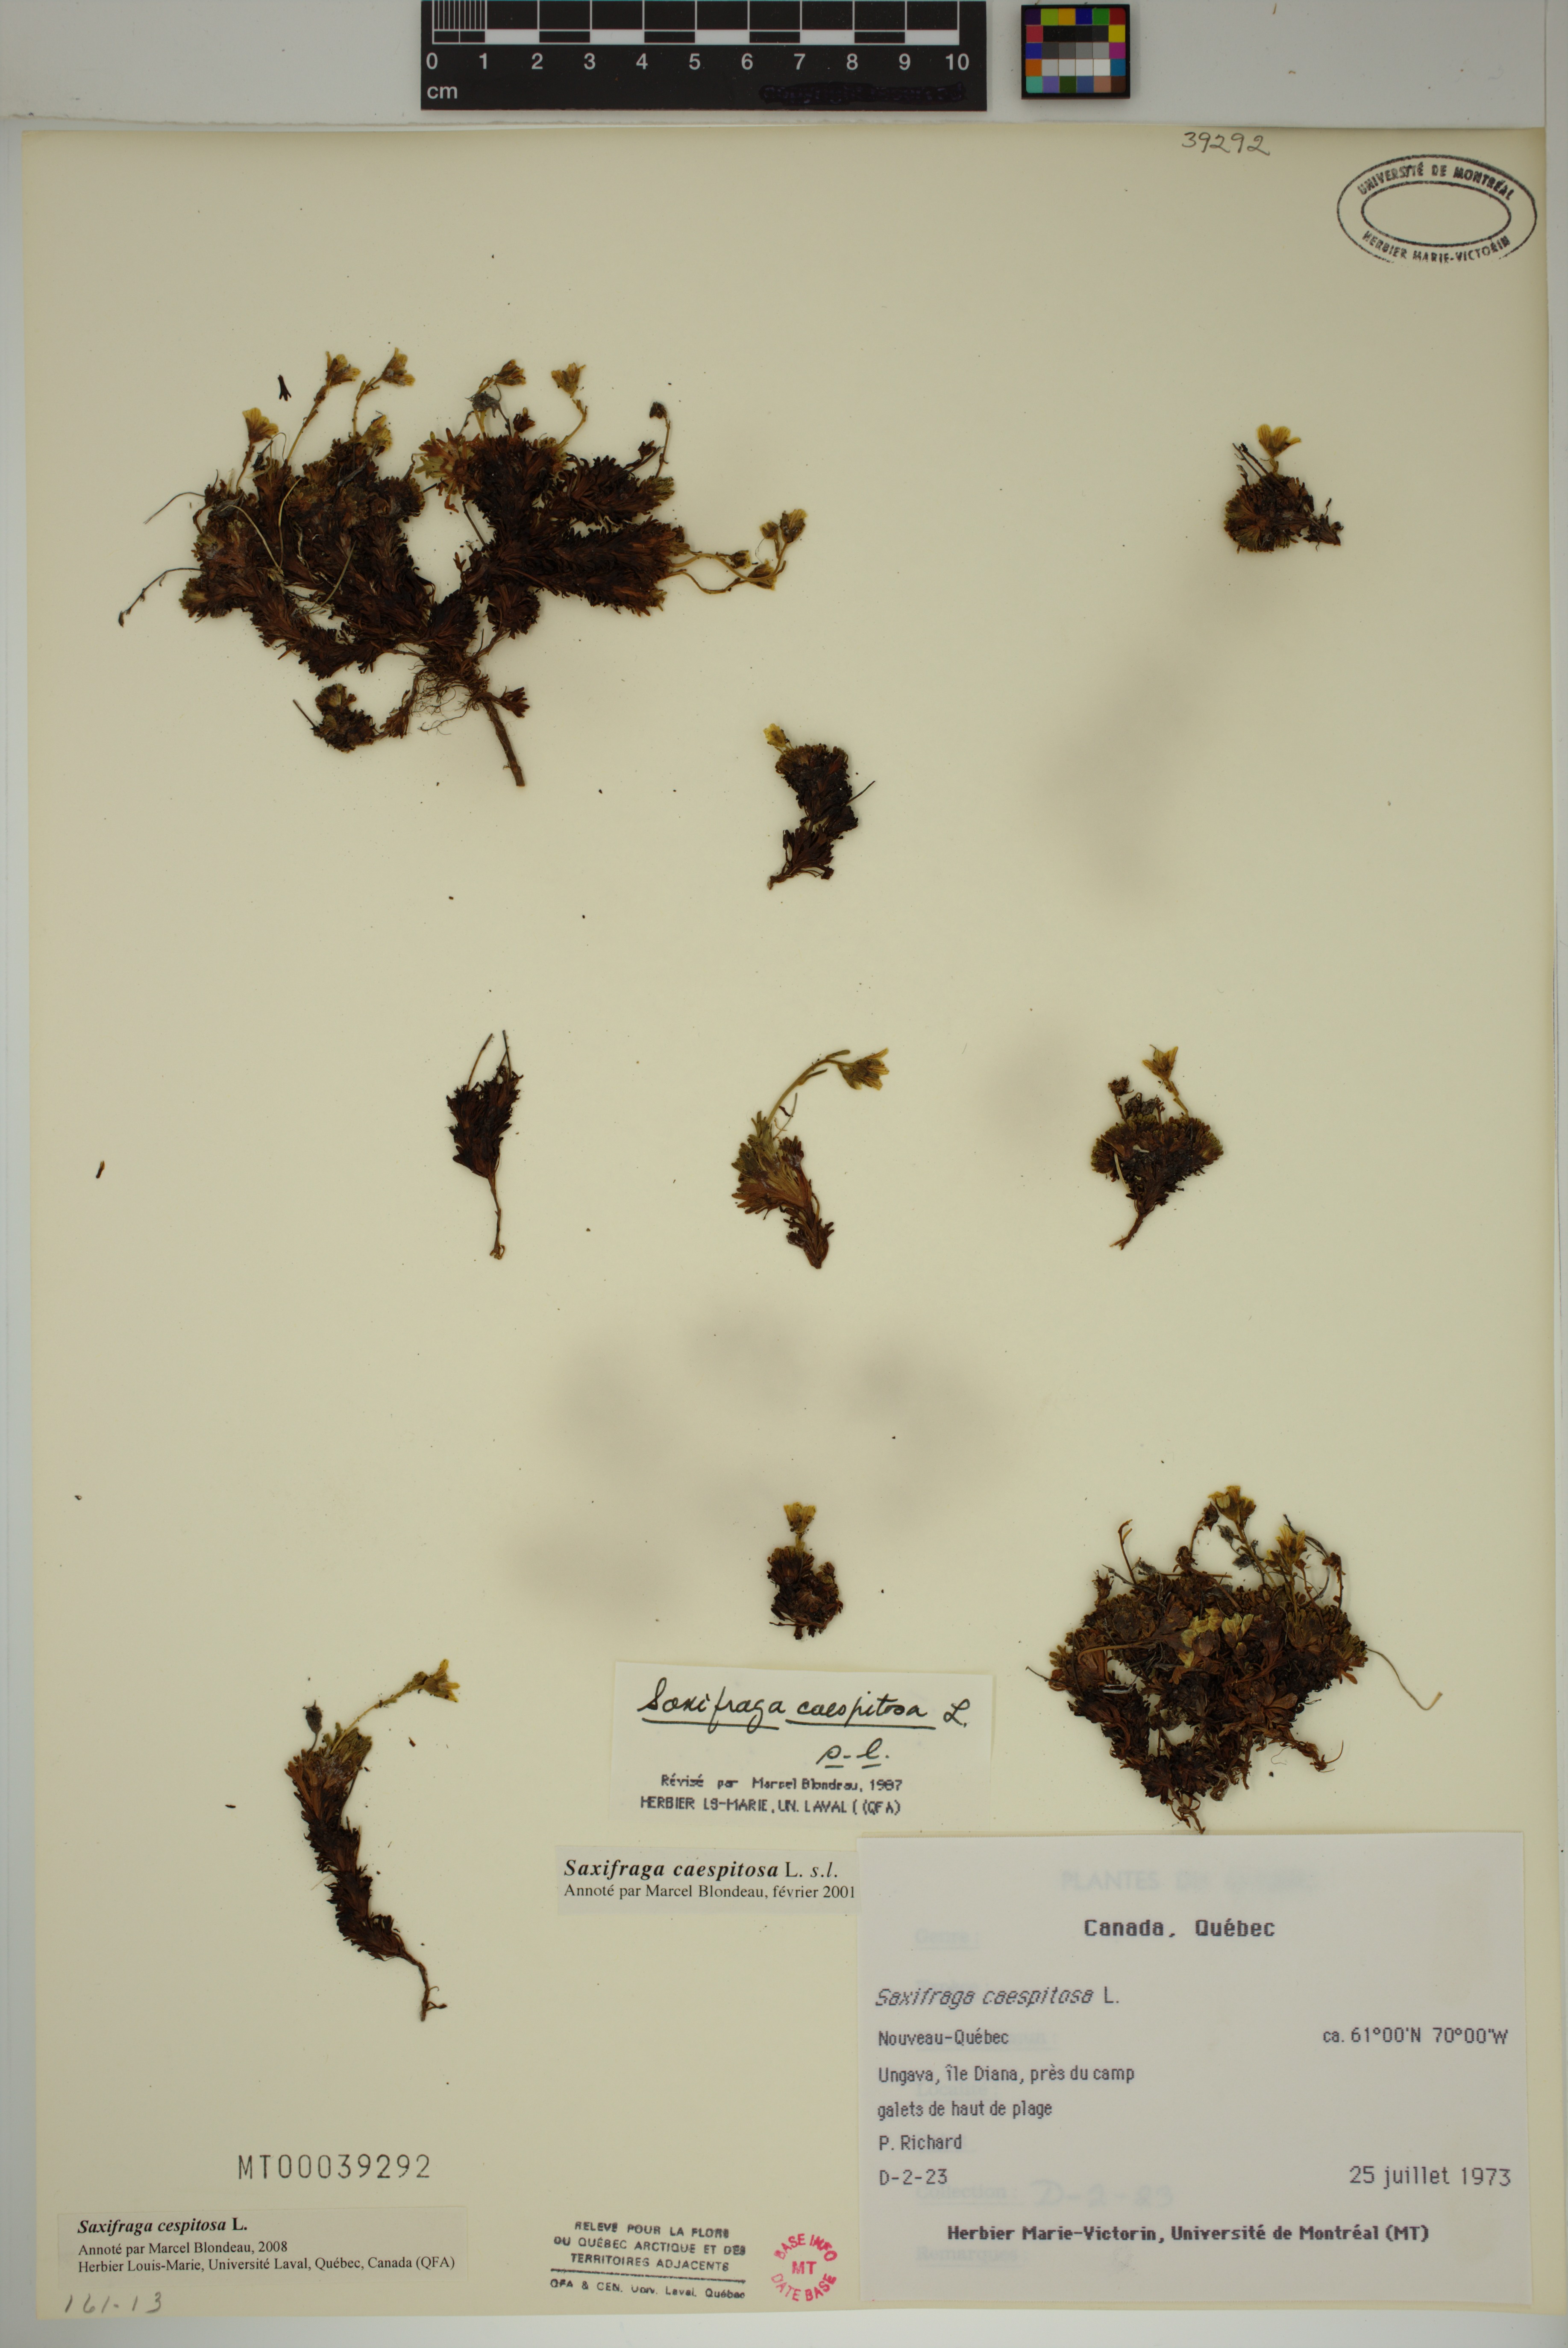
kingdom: Plantae
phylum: Tracheophyta
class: Magnoliopsida
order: Saxifragales
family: Saxifragaceae
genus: Saxifraga
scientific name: Saxifraga cespitosa
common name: Tufted saxifrage
